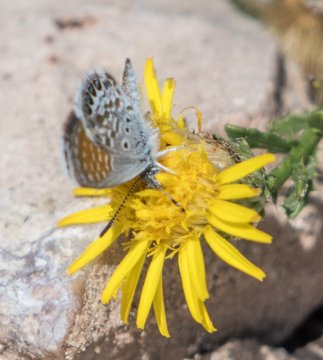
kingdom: Animalia
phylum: Arthropoda
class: Insecta
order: Lepidoptera
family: Lycaenidae
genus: Brephidium
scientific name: Brephidium exilis
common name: Western Pygmy-Blue
